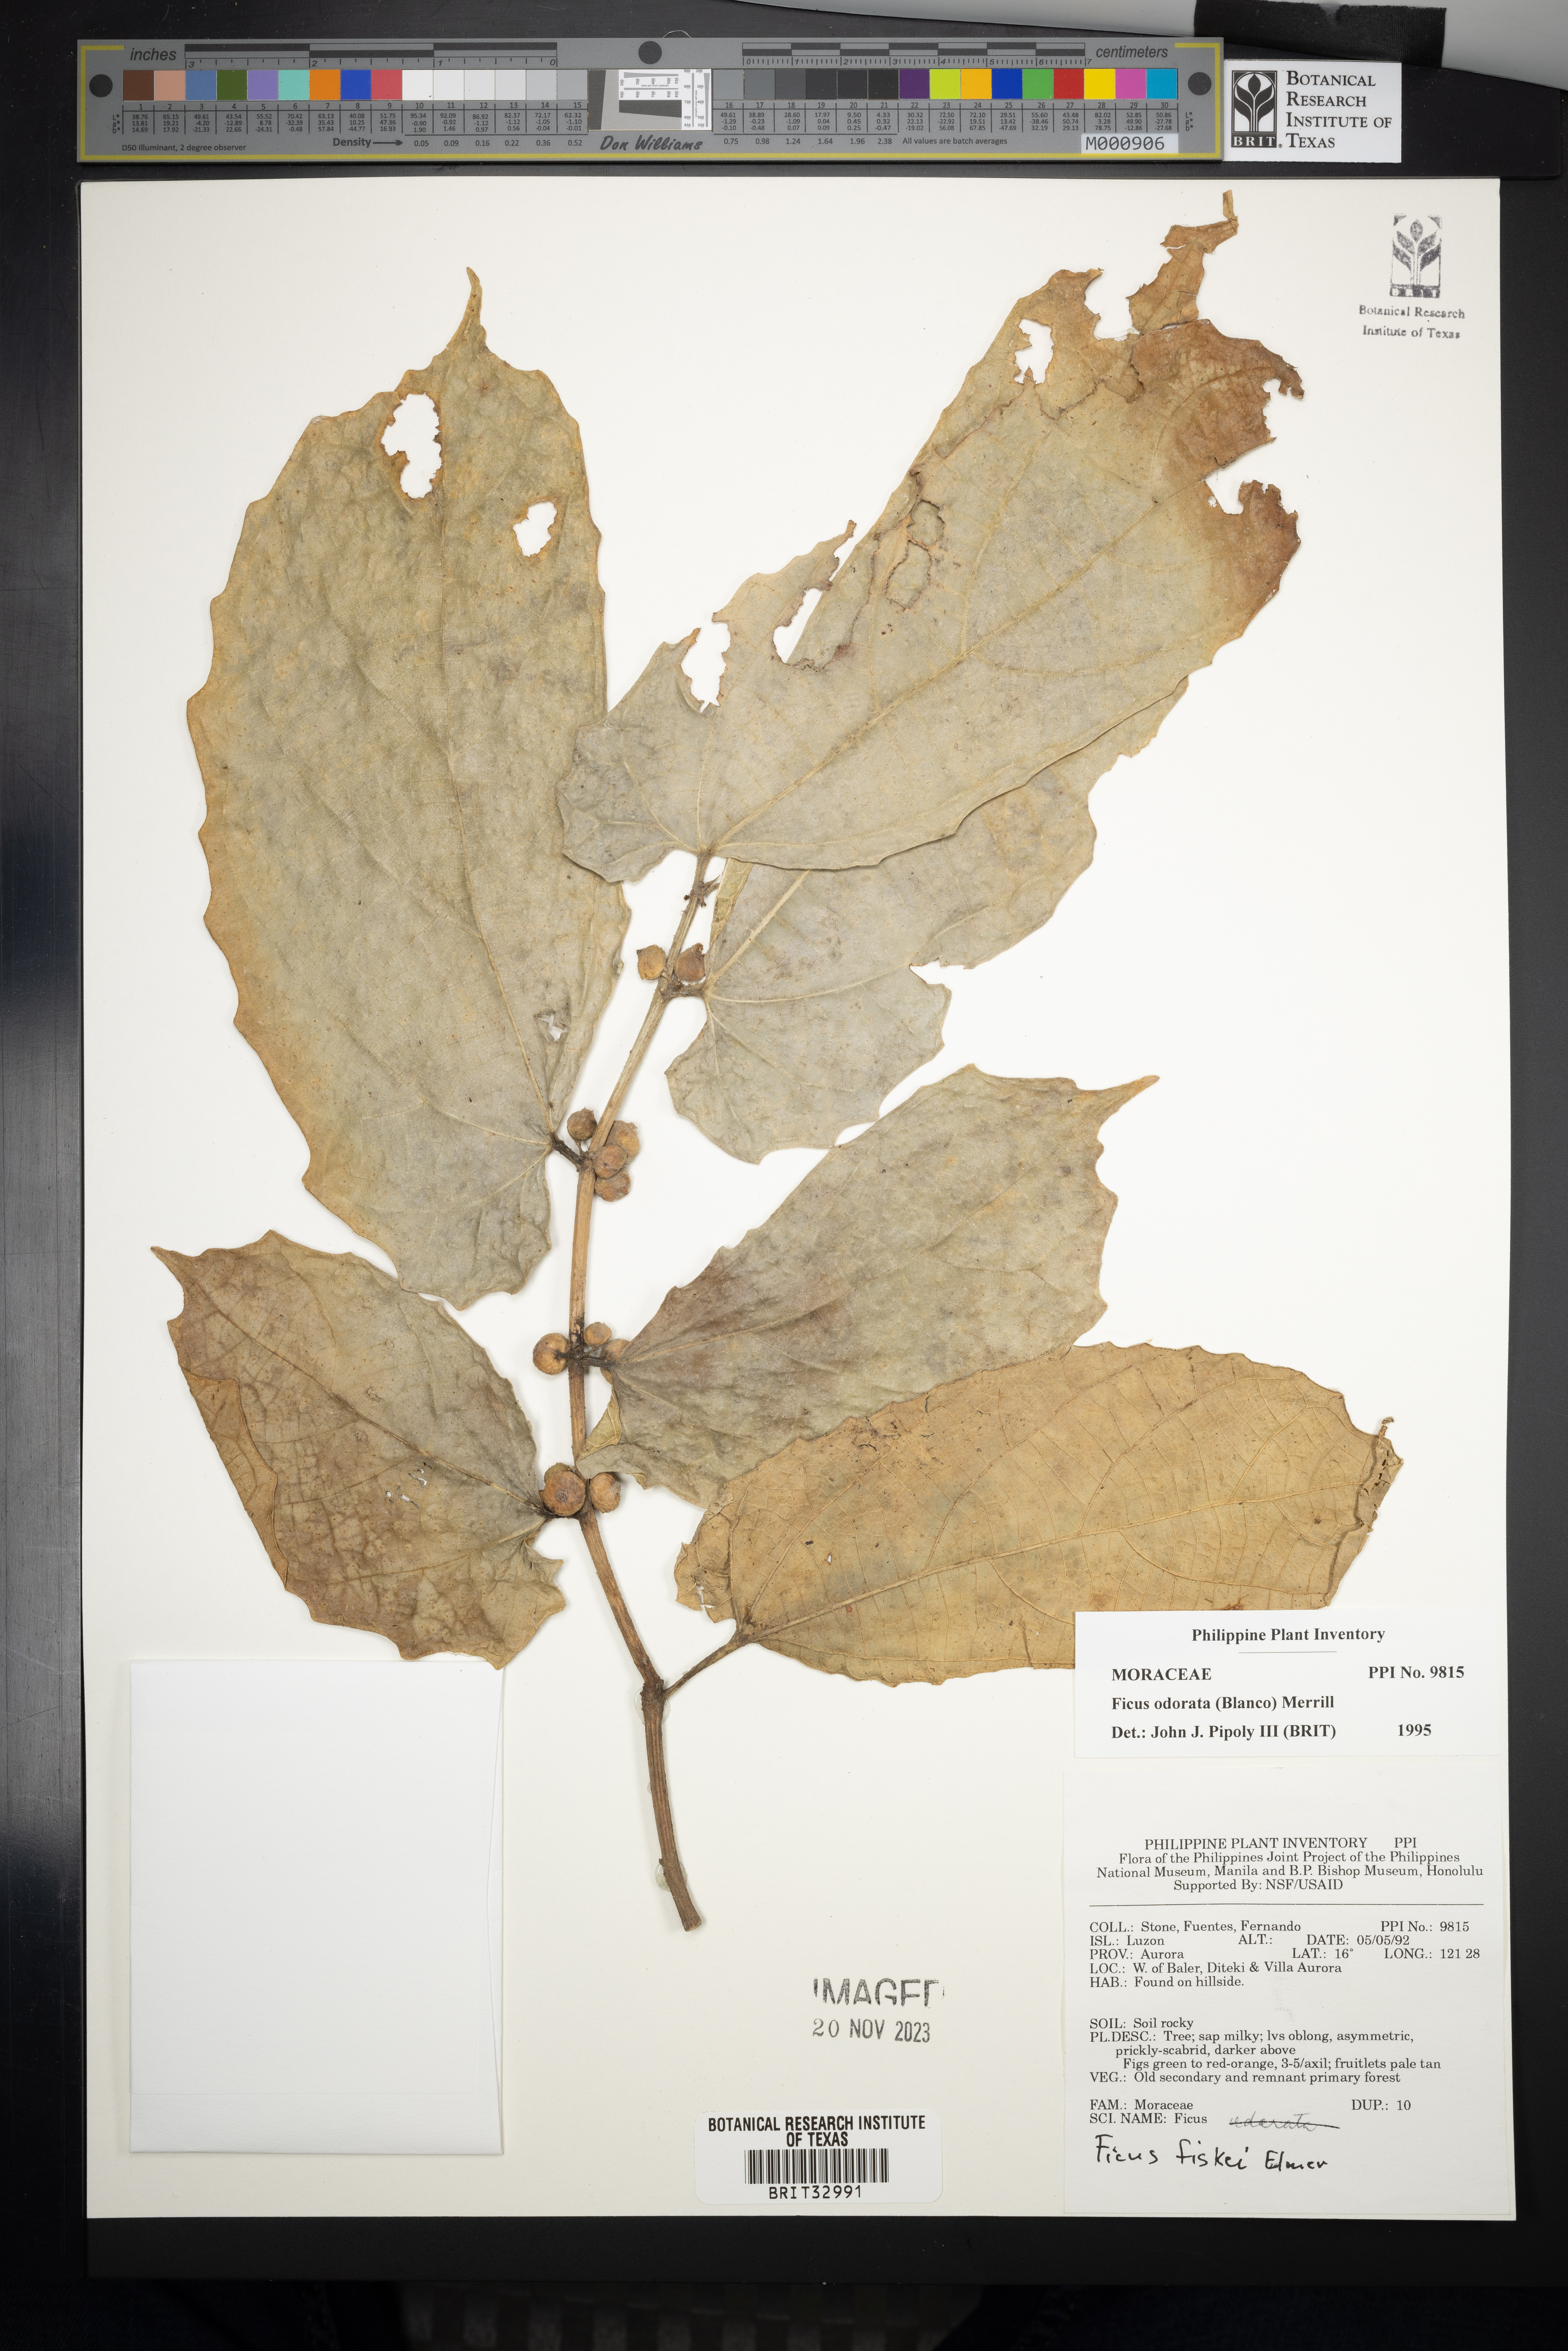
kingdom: Plantae
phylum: Tracheophyta
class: Magnoliopsida
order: Rosales
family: Moraceae
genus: Ficus
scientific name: Ficus odorata
